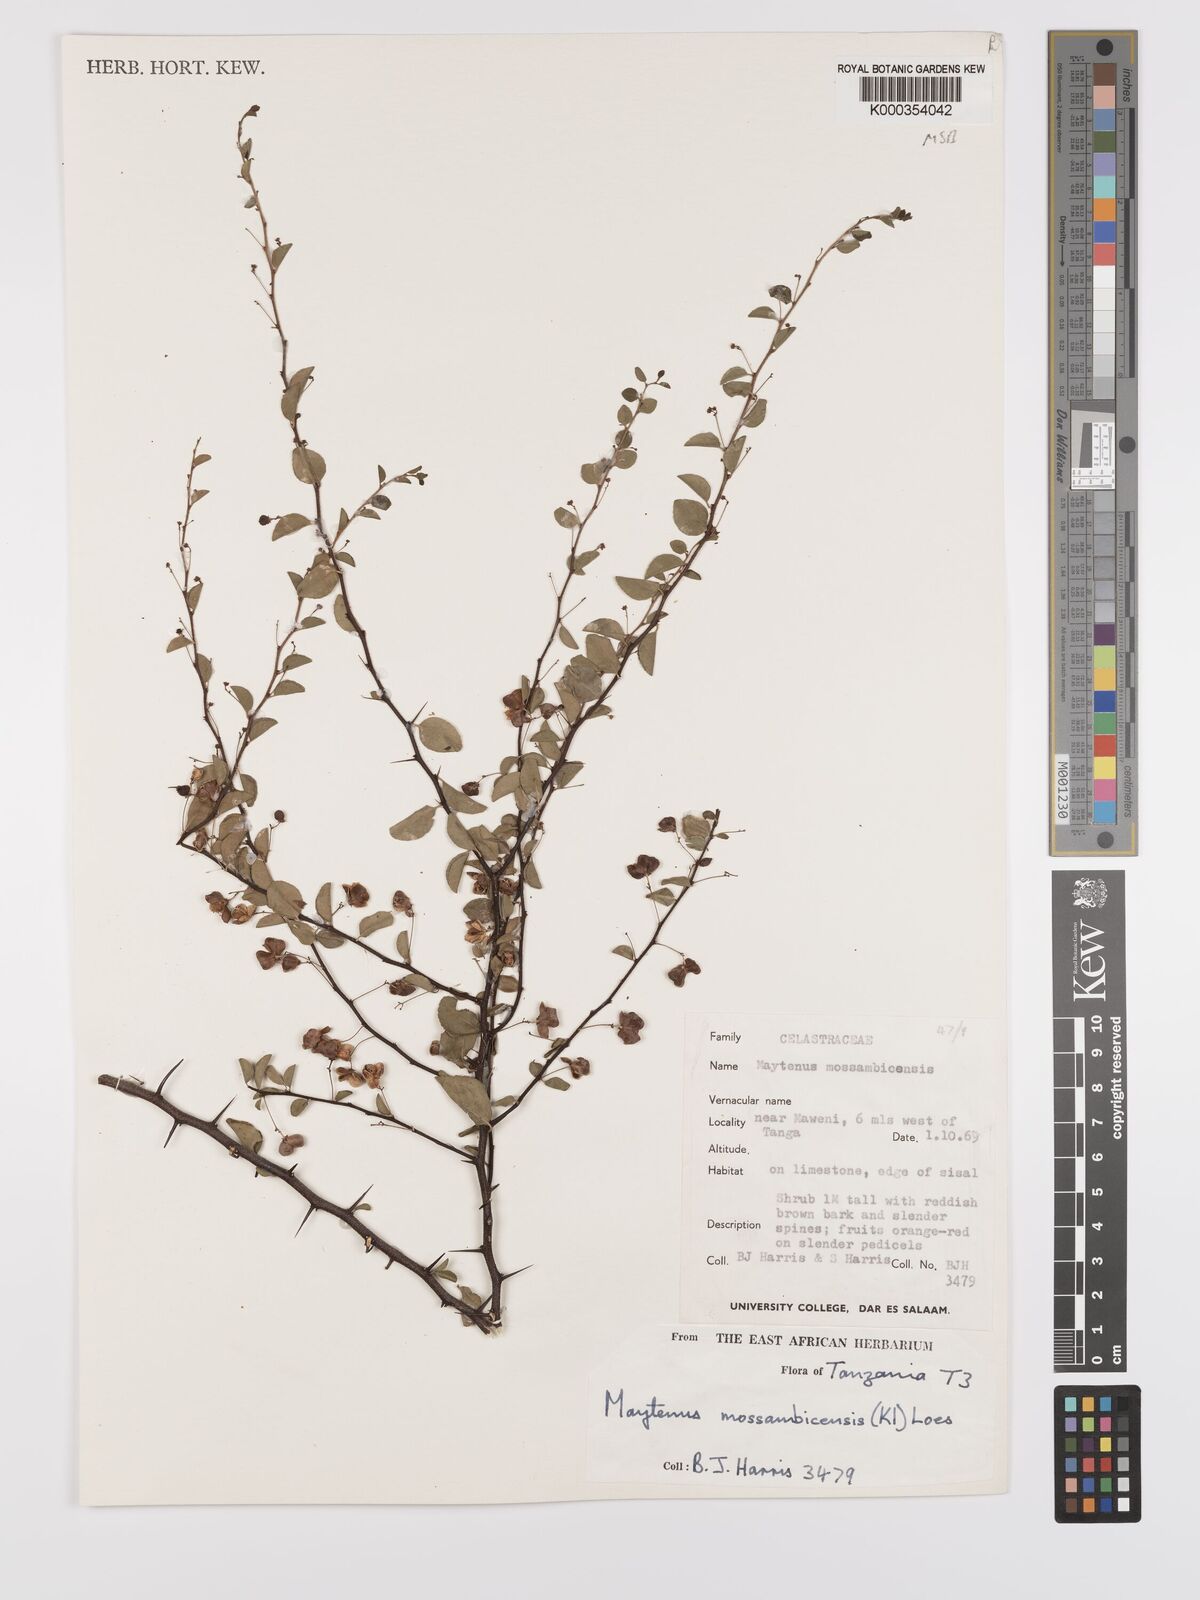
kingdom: Plantae
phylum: Tracheophyta
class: Magnoliopsida
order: Celastrales
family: Celastraceae
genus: Gymnosporia
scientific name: Gymnosporia mossambicensis
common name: Black forest spike-thorn
